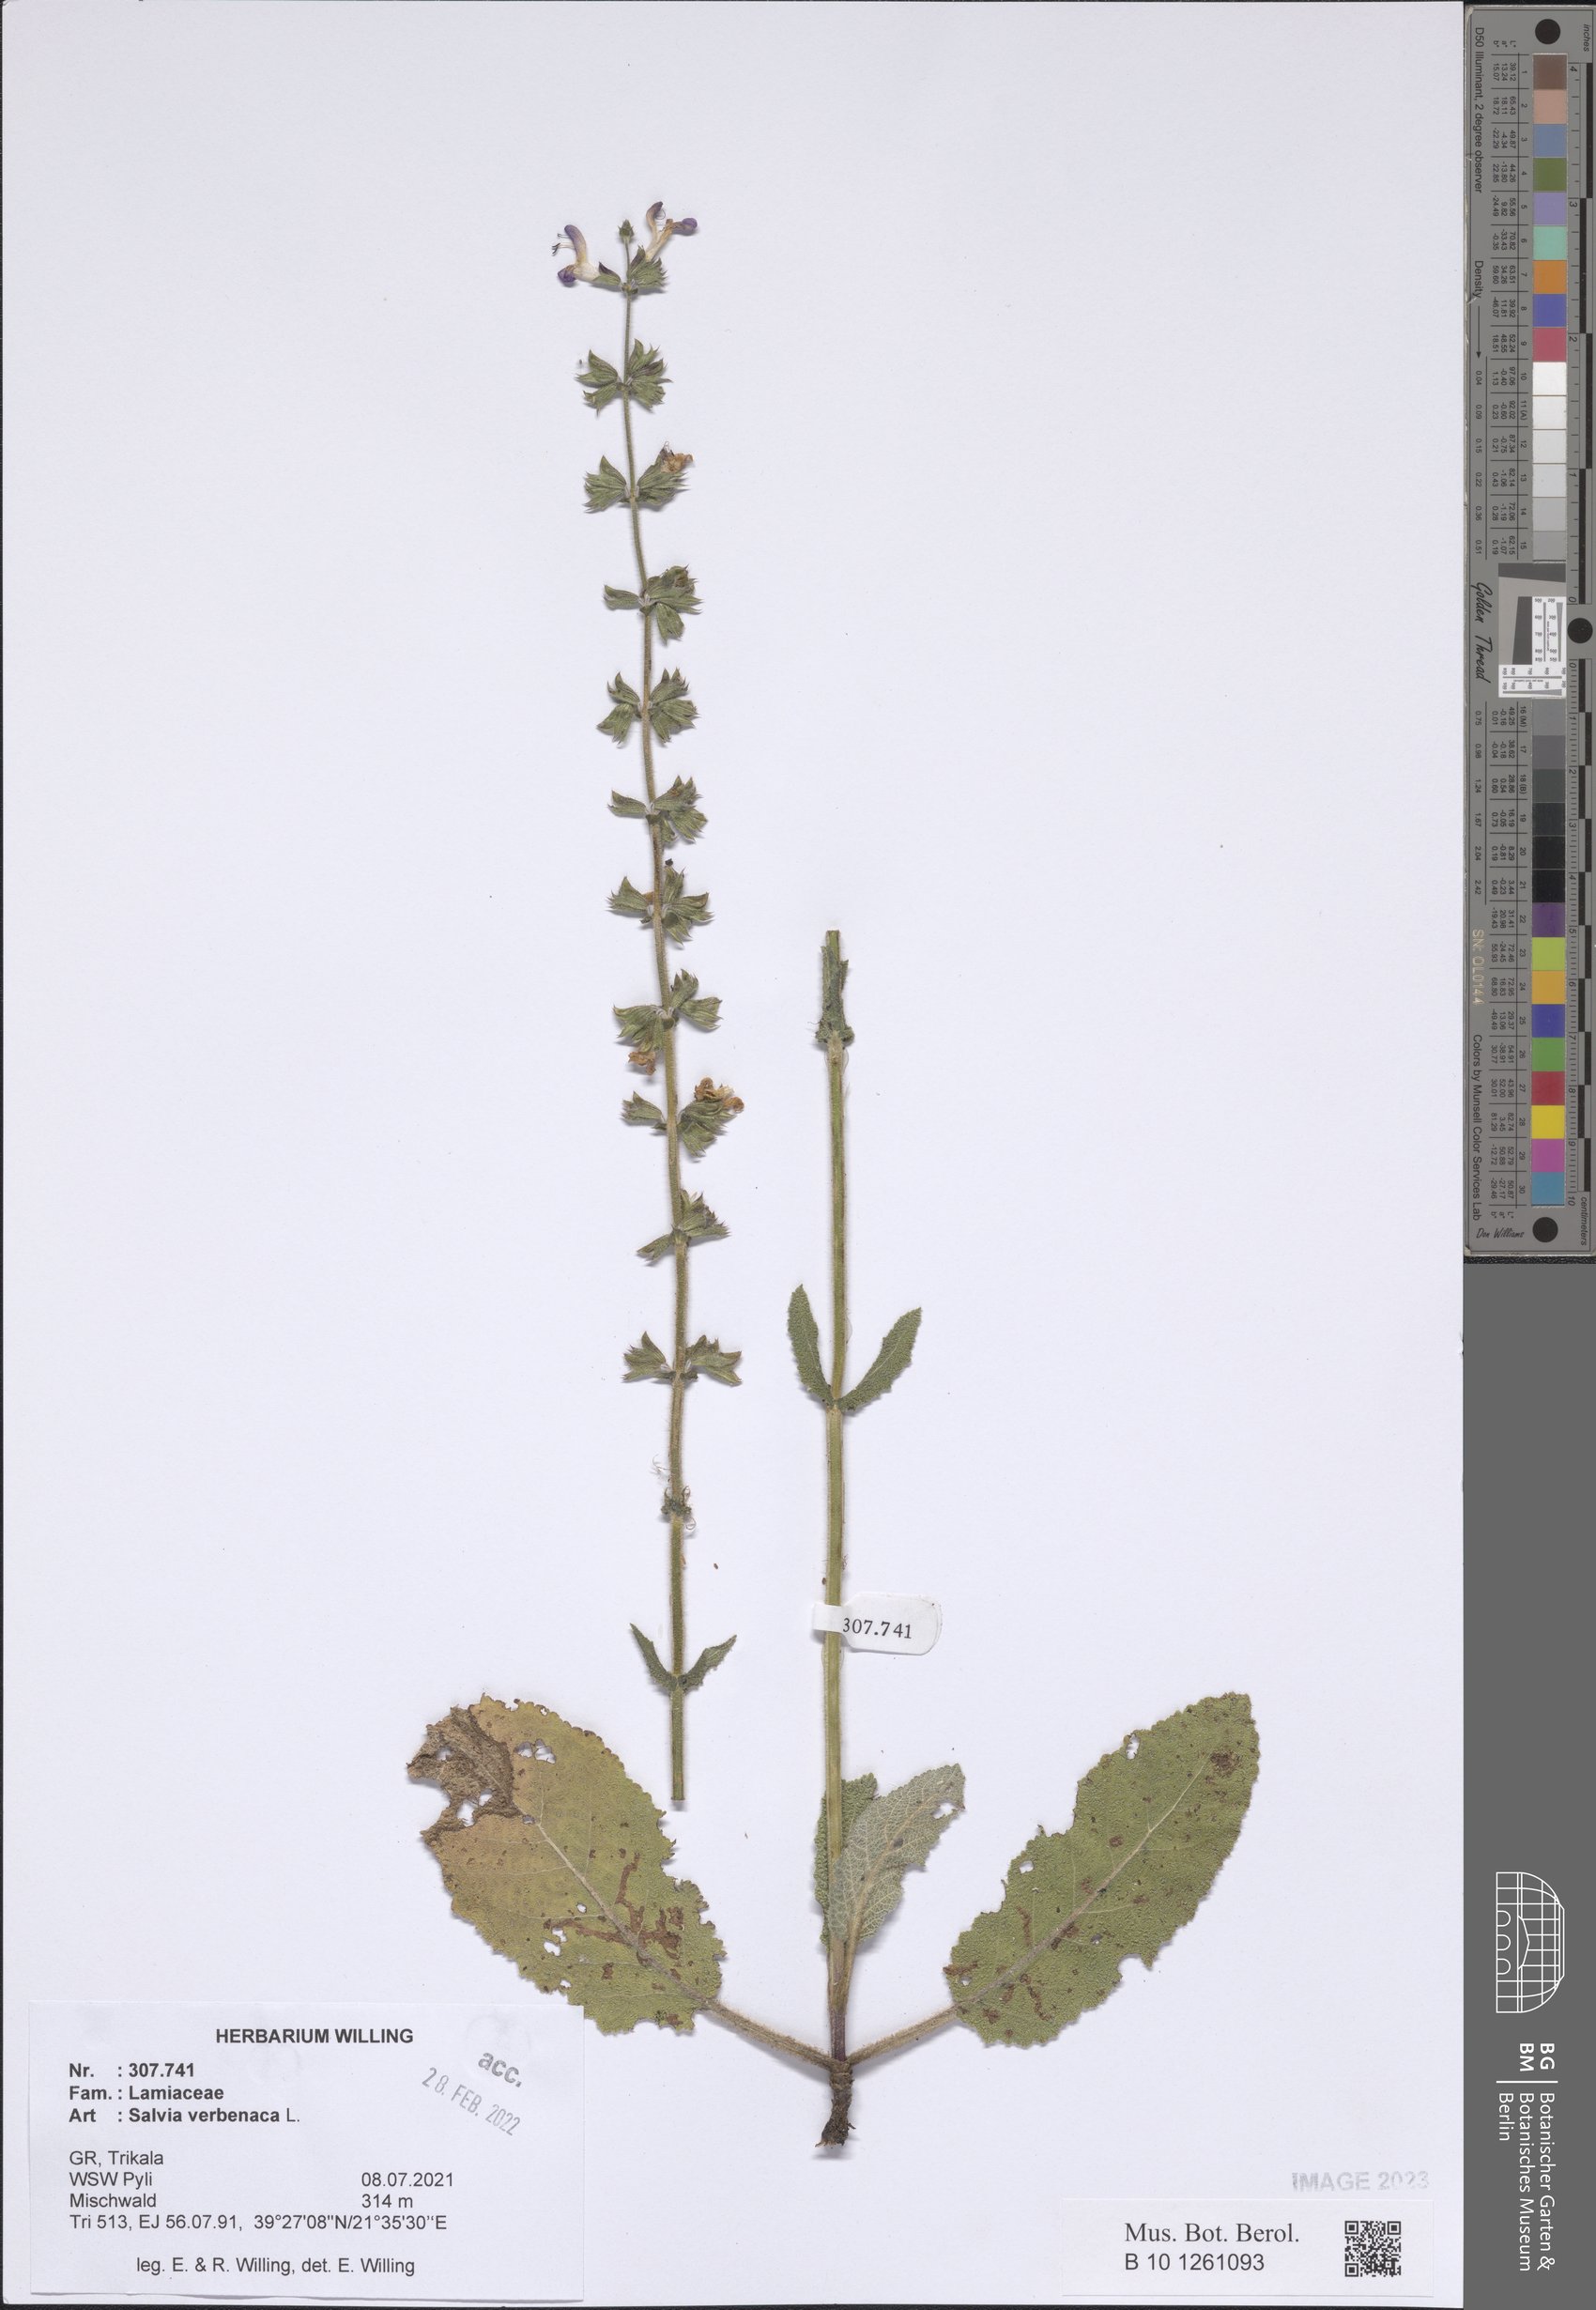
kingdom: Plantae
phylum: Tracheophyta
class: Magnoliopsida
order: Lamiales
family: Lamiaceae
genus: Salvia
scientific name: Salvia verbenaca
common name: Wild clary
